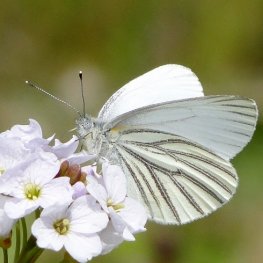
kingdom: Animalia
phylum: Arthropoda
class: Insecta
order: Lepidoptera
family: Pieridae
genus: Pieris
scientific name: Pieris oleracea
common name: Mustard White
